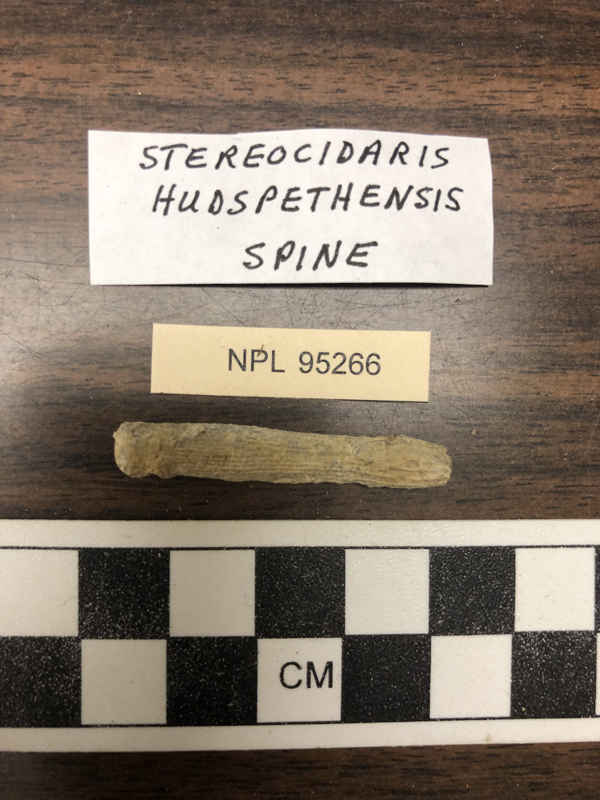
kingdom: Animalia
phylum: Echinodermata
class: Echinoidea
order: Cidaroida
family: Cidaridae
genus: Stereocidaris
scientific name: Stereocidaris hudspethensis
